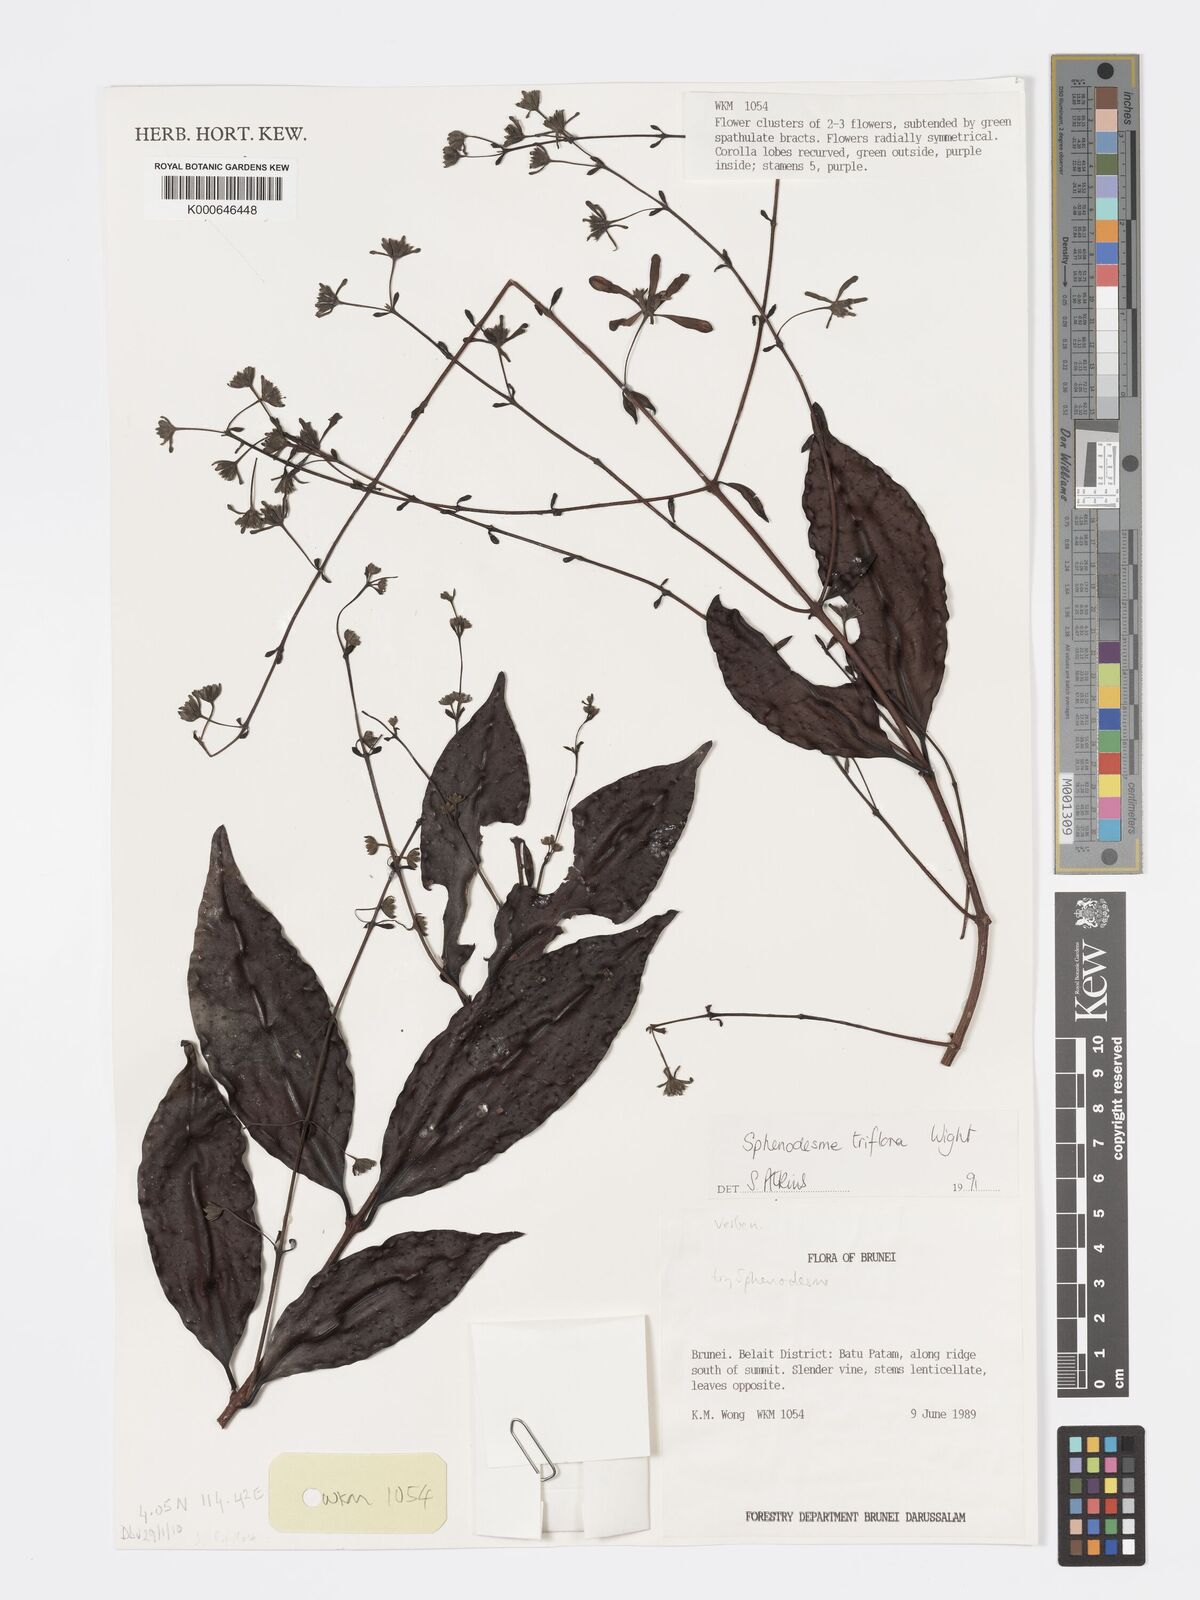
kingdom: Plantae
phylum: Tracheophyta
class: Magnoliopsida
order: Lamiales
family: Lamiaceae
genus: Sphenodesme
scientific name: Sphenodesme triflora
